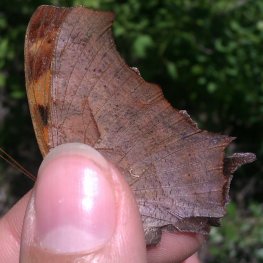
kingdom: Animalia
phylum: Arthropoda
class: Insecta
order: Lepidoptera
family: Nymphalidae
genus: Polygonia
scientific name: Polygonia interrogationis
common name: Question Mark
